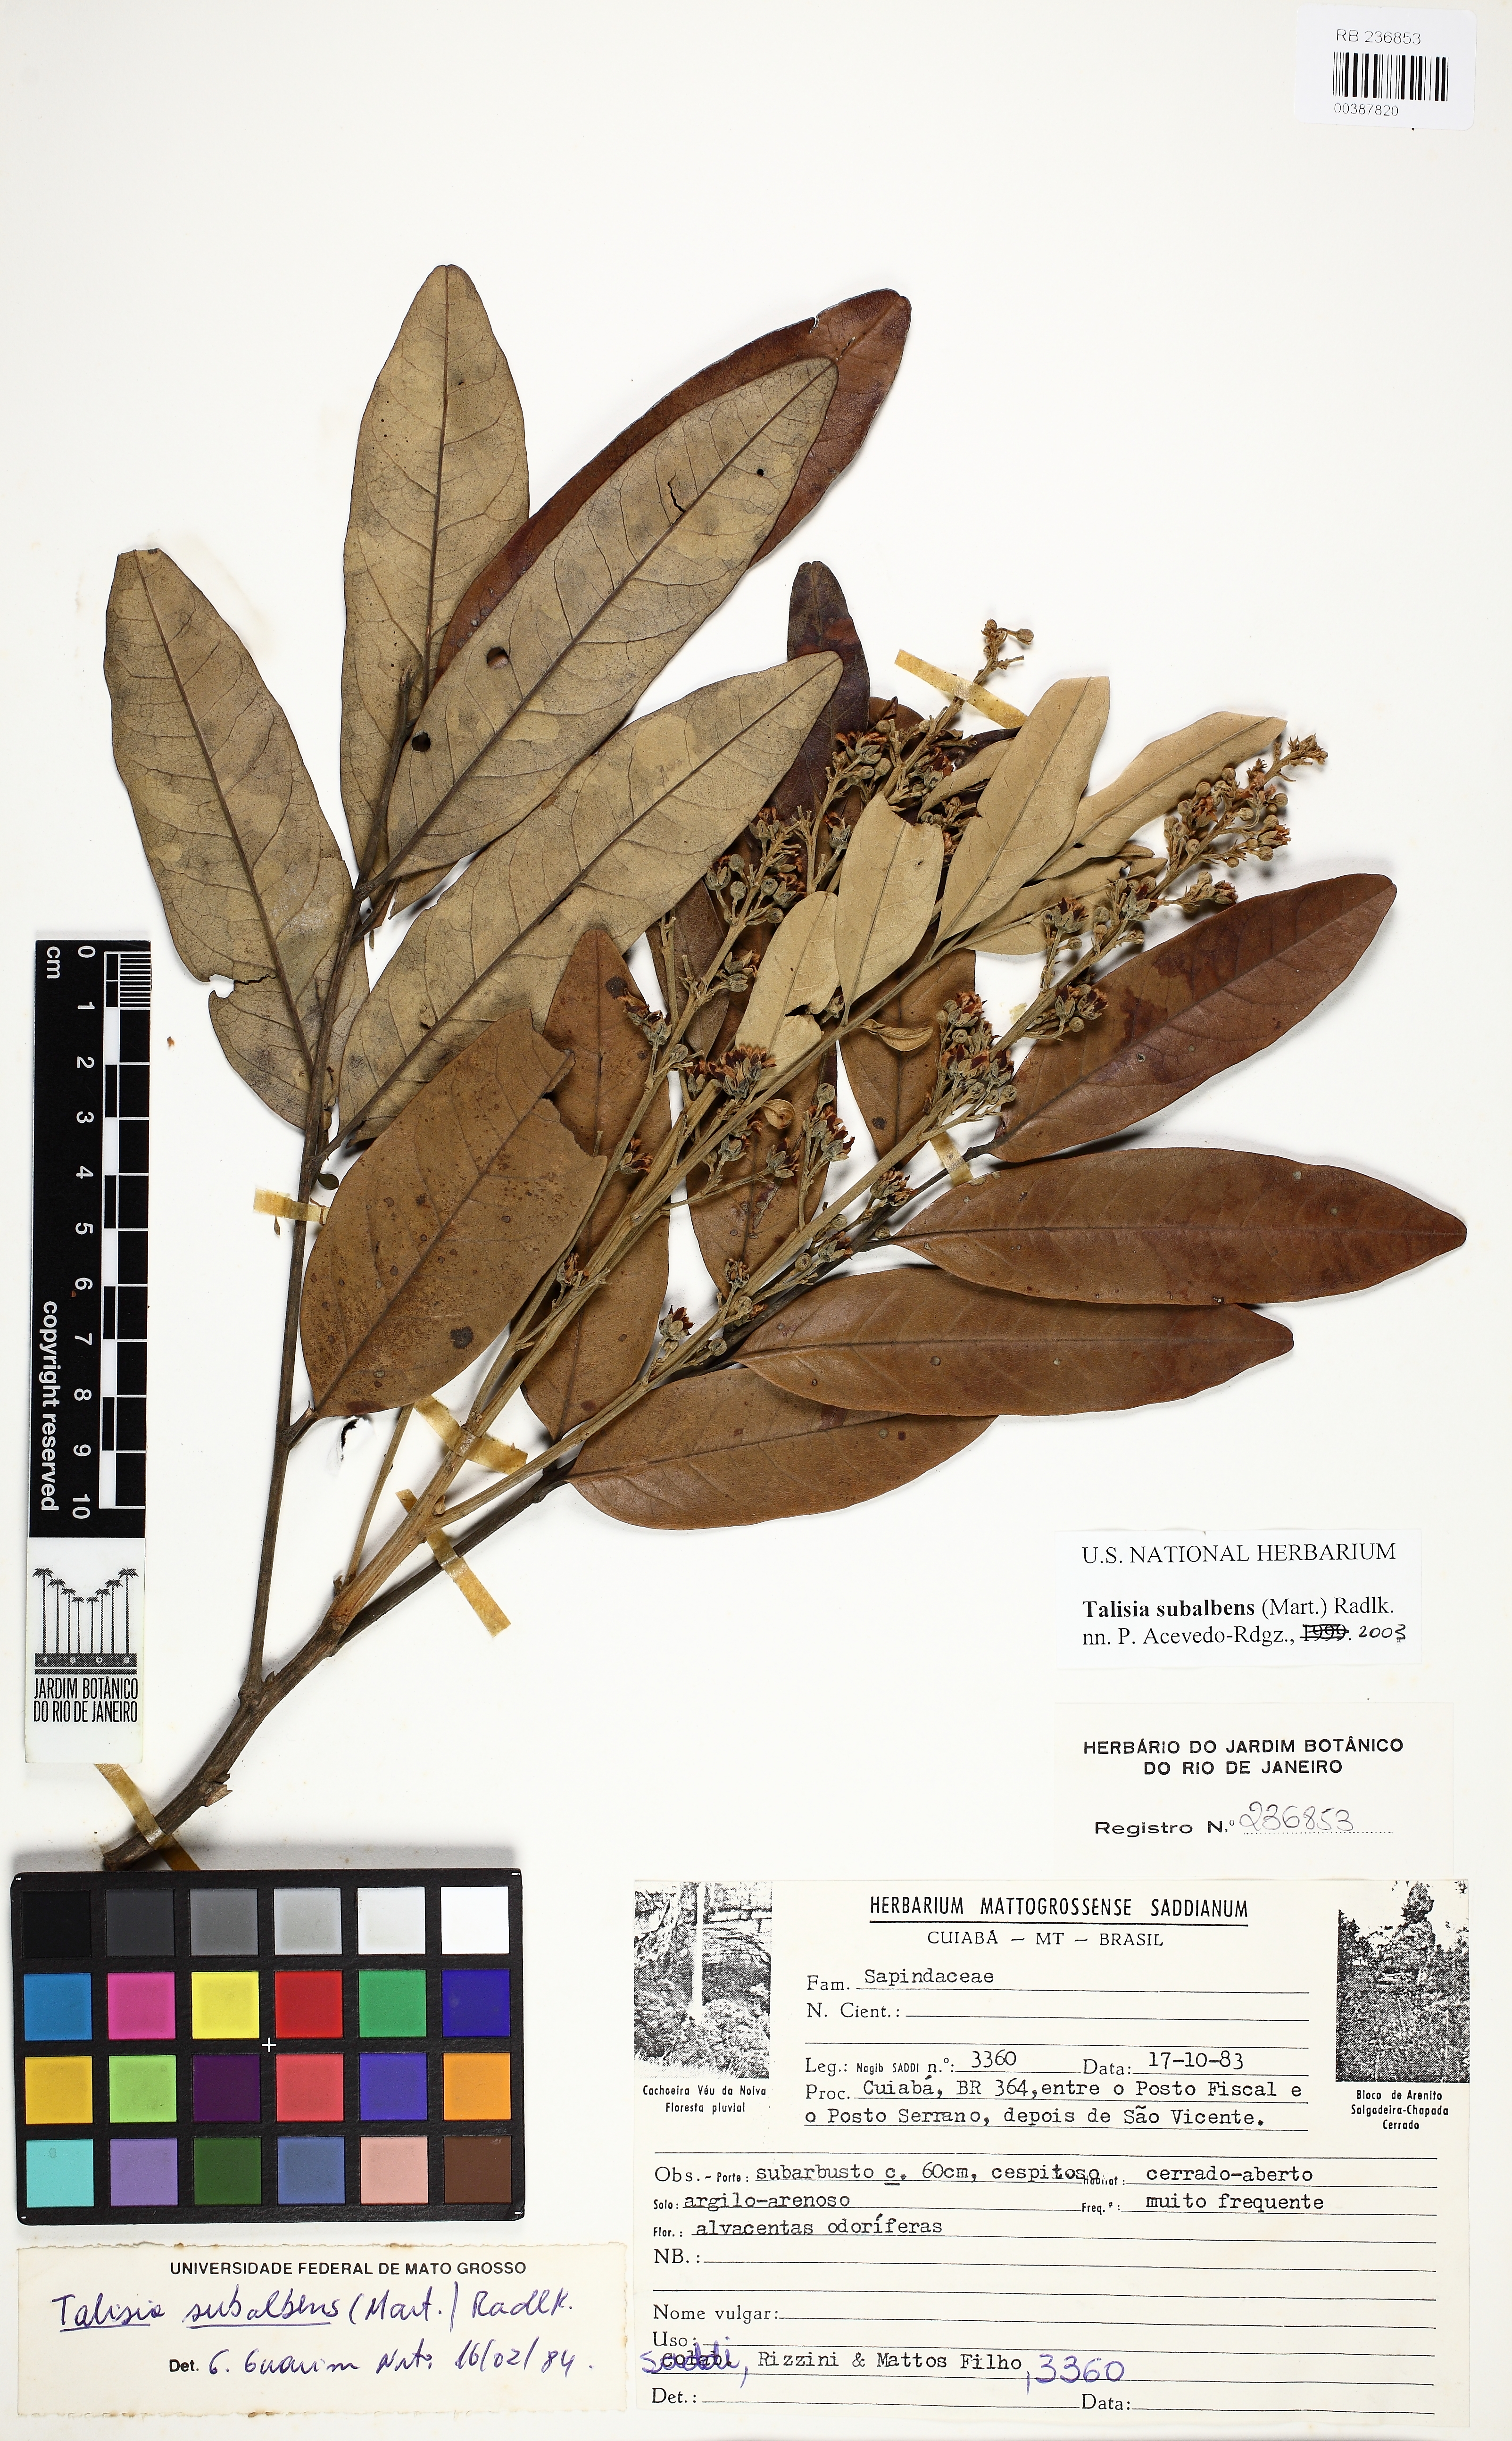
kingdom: Plantae
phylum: Tracheophyta
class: Magnoliopsida
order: Sapindales
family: Sapindaceae
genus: Talisia
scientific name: Talisia subalbens
